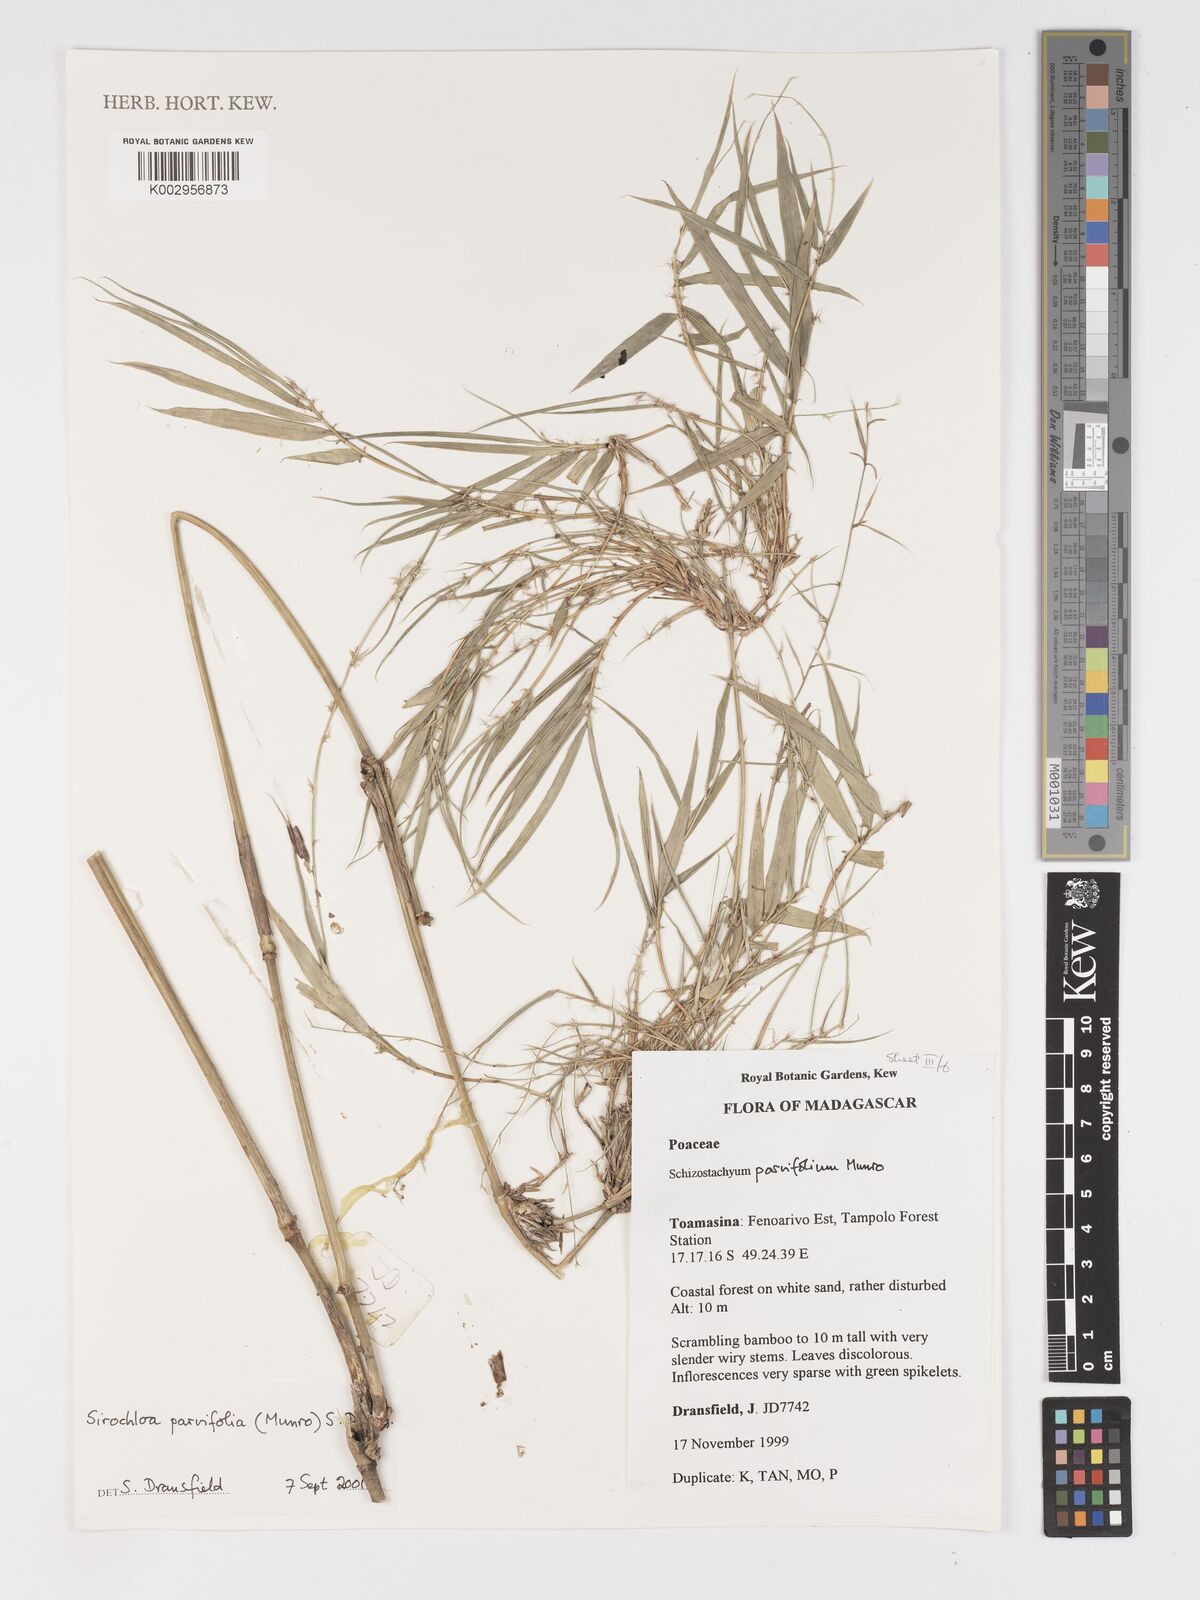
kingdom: Plantae
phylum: Tracheophyta
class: Liliopsida
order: Poales
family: Poaceae
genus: Sirochloa
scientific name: Sirochloa parvifolia
